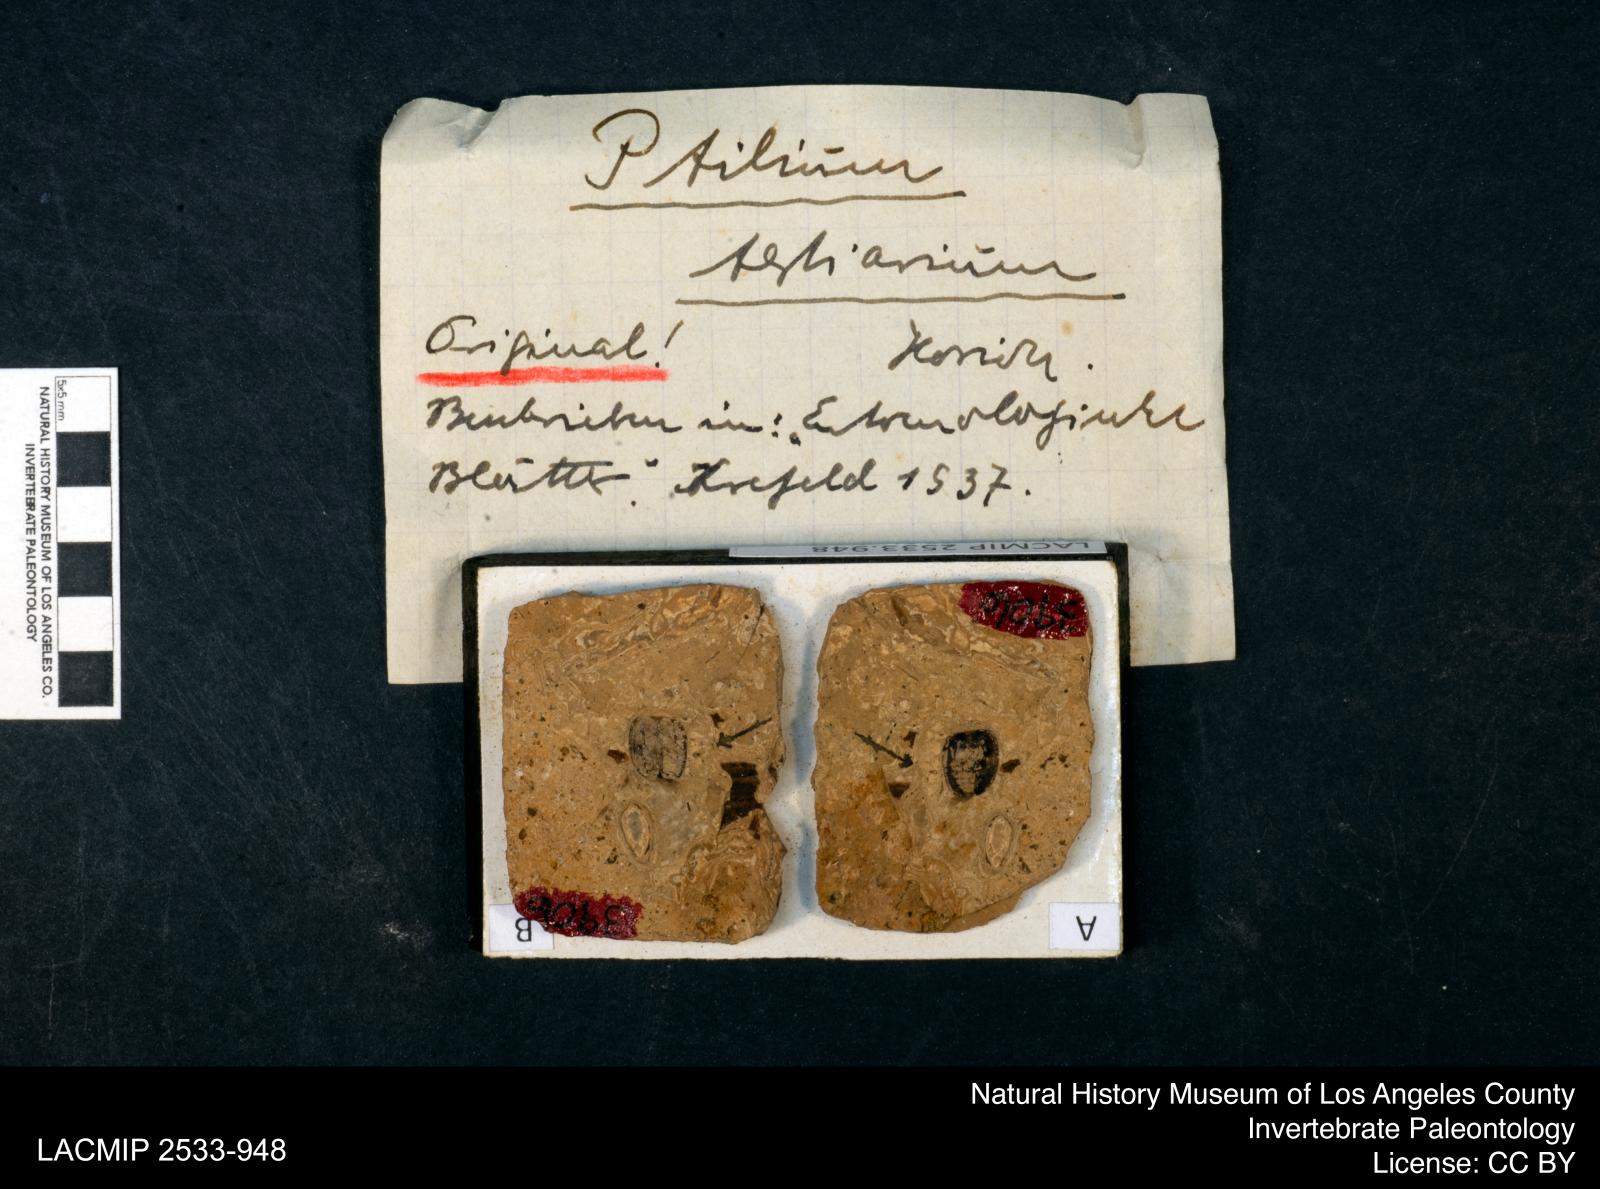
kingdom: Animalia
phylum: Arthropoda
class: Insecta
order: Coleoptera
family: Ptiliidae
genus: Ptilium
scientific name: Ptilium tertiarium
